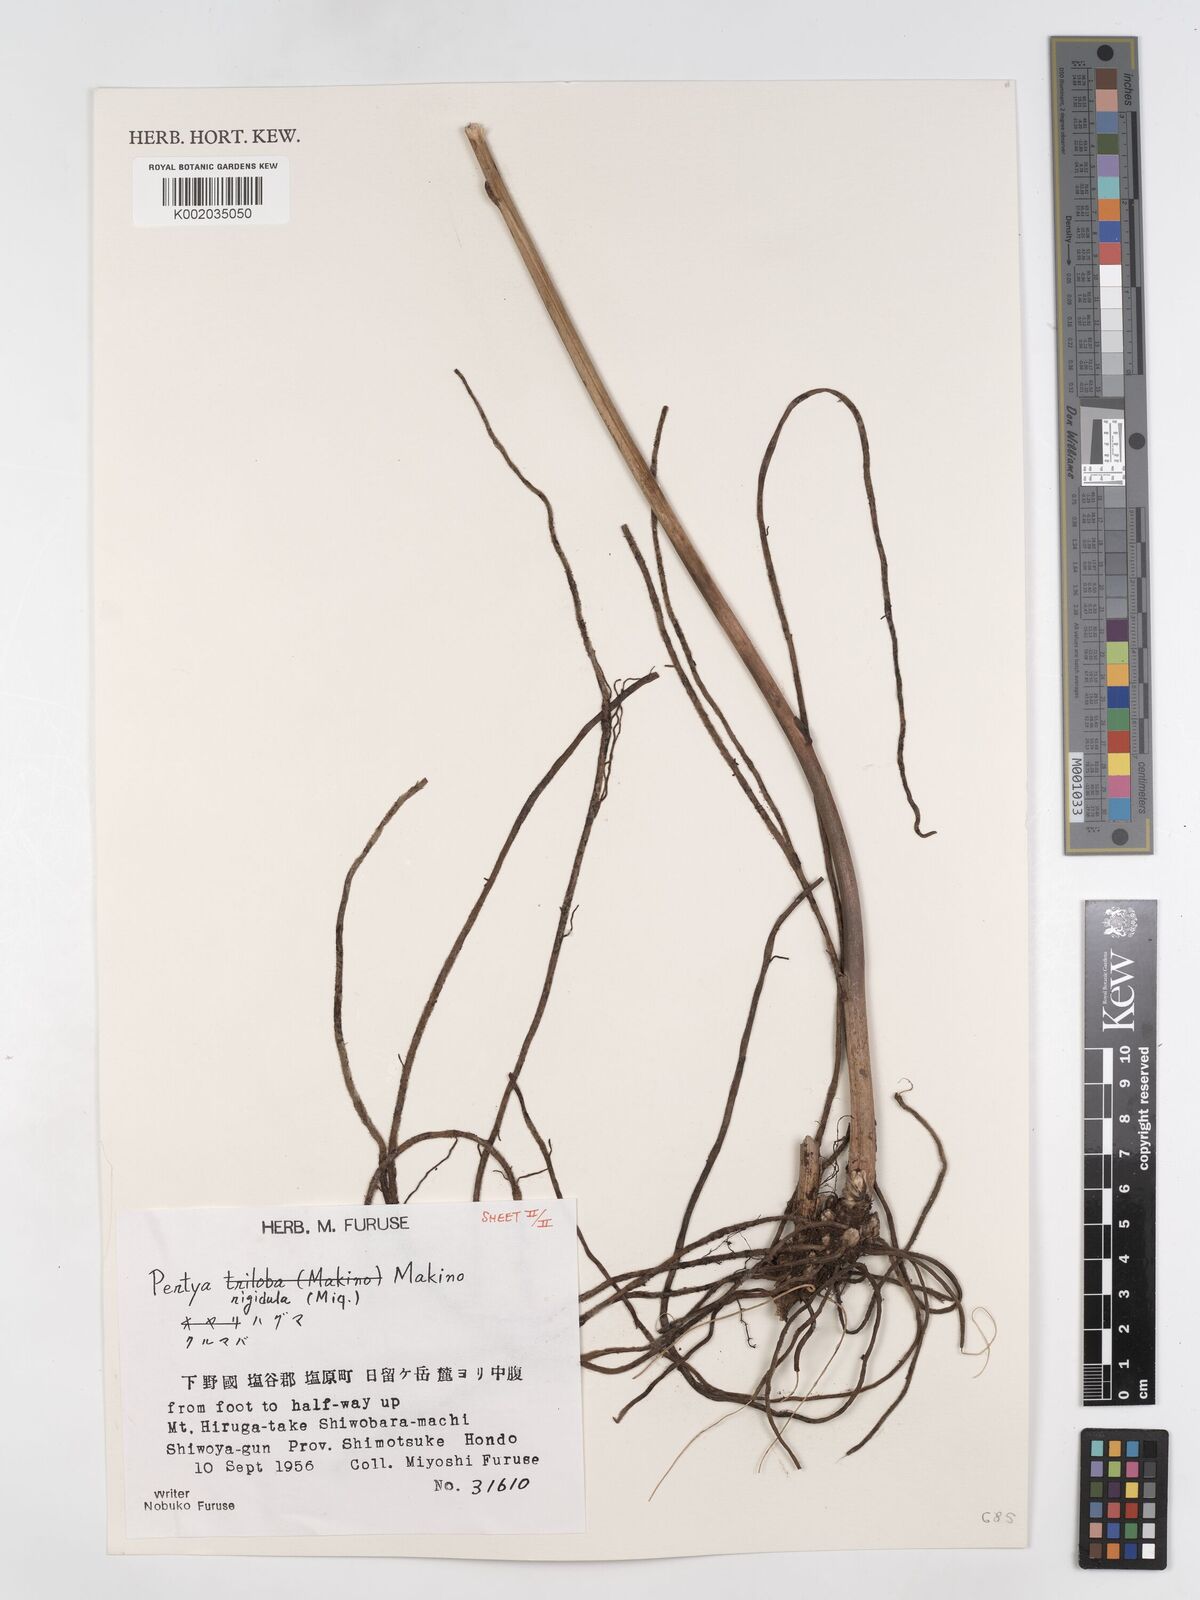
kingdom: Plantae
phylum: Tracheophyta
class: Magnoliopsida
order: Asterales
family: Asteraceae
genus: Pertya
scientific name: Pertya rigidula
